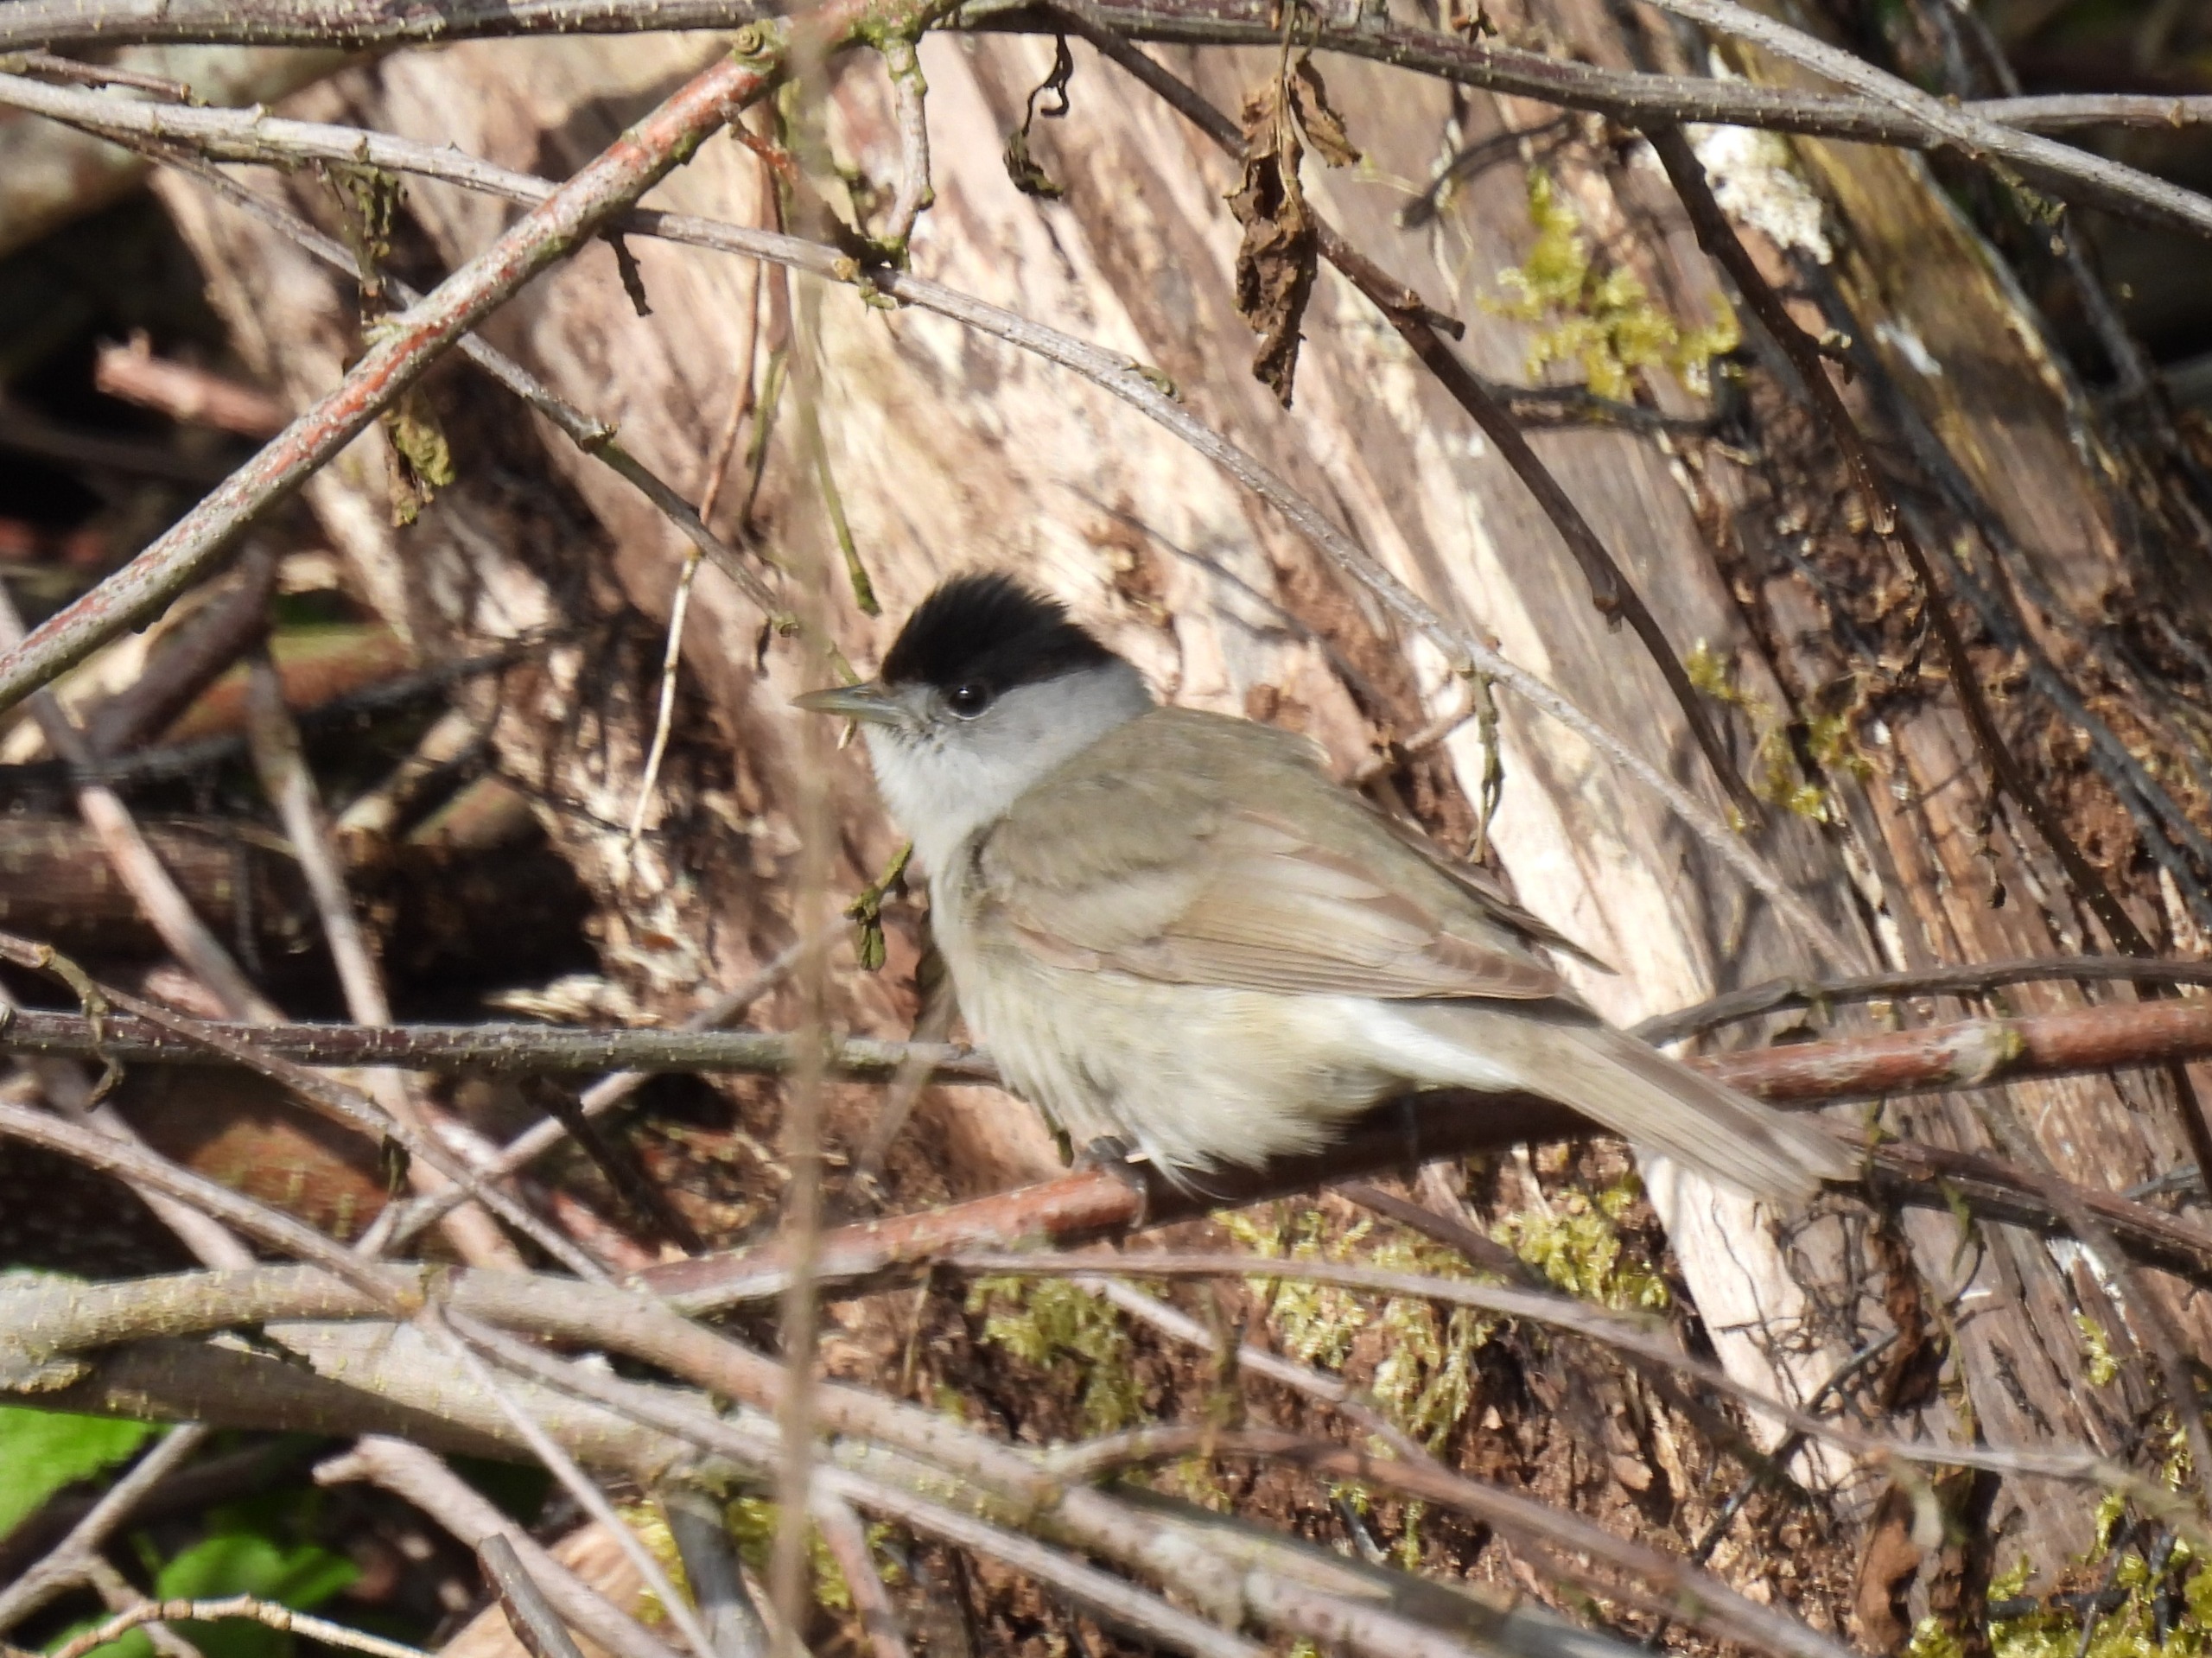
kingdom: Animalia
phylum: Chordata
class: Aves
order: Passeriformes
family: Sylviidae
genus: Sylvia
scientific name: Sylvia atricapilla
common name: Munk
